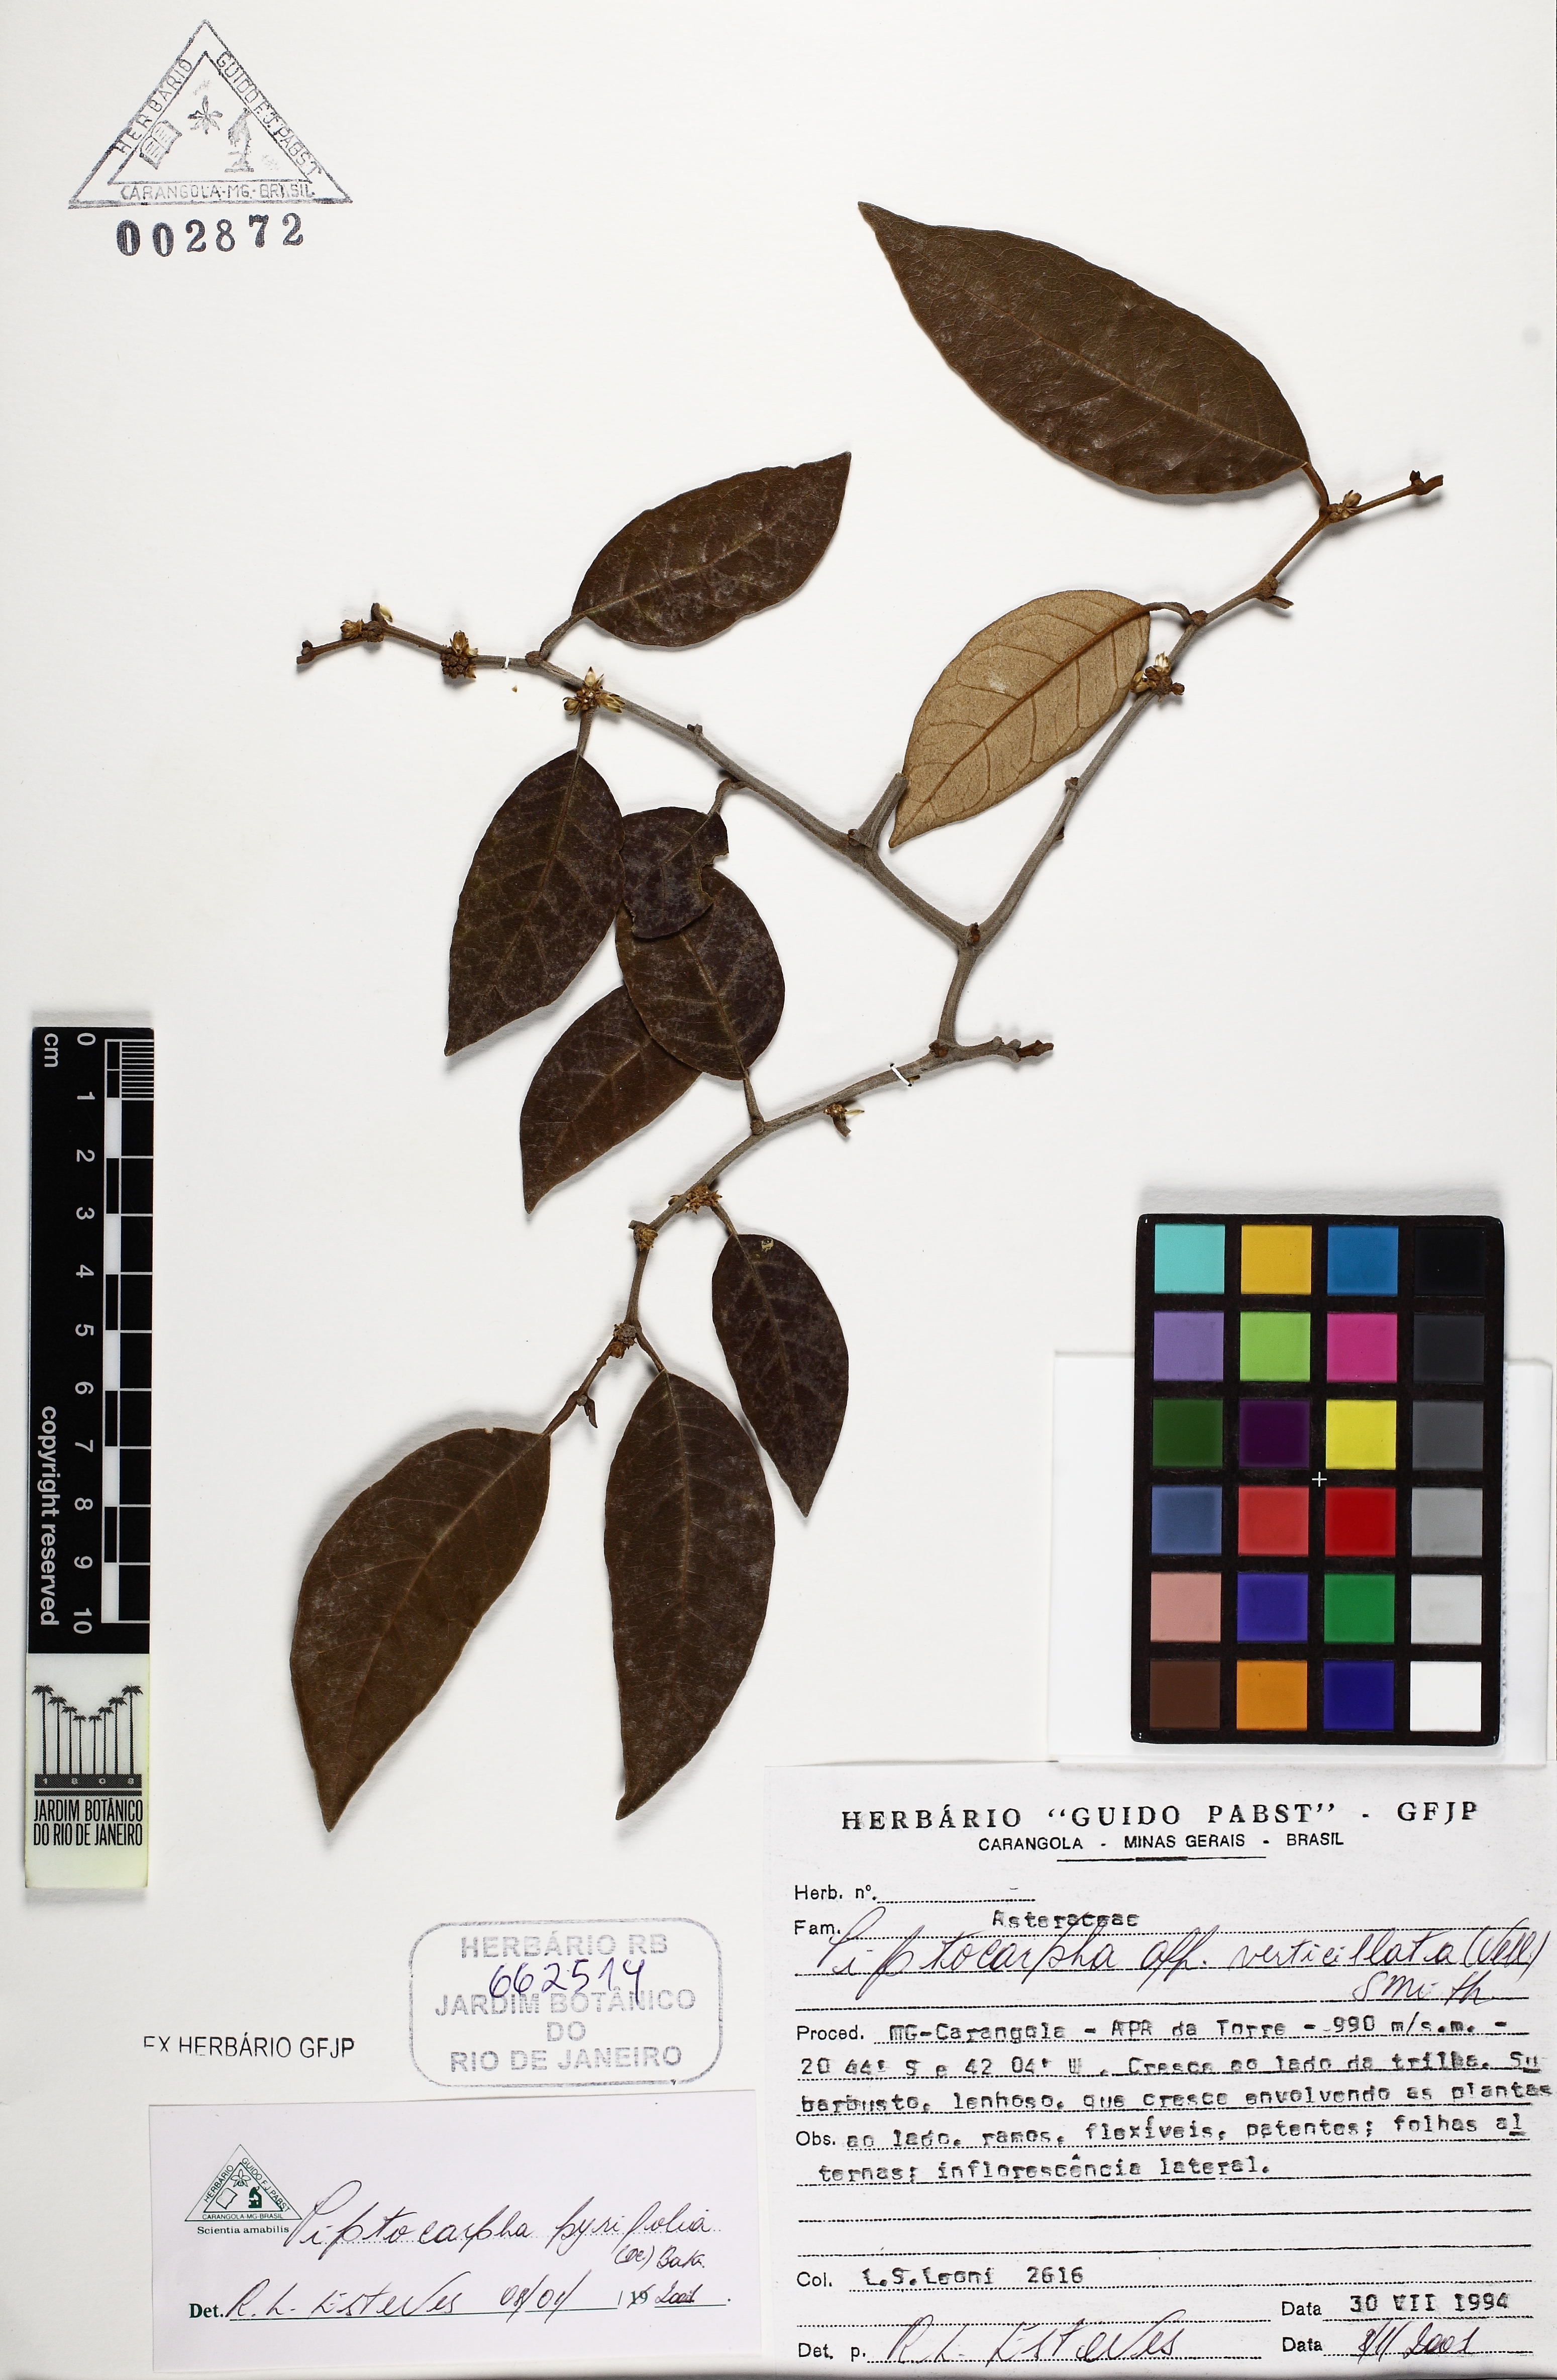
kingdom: Plantae
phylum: Tracheophyta
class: Magnoliopsida
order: Asterales
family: Asteraceae
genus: Piptocarpha
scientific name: Piptocarpha oblonga
